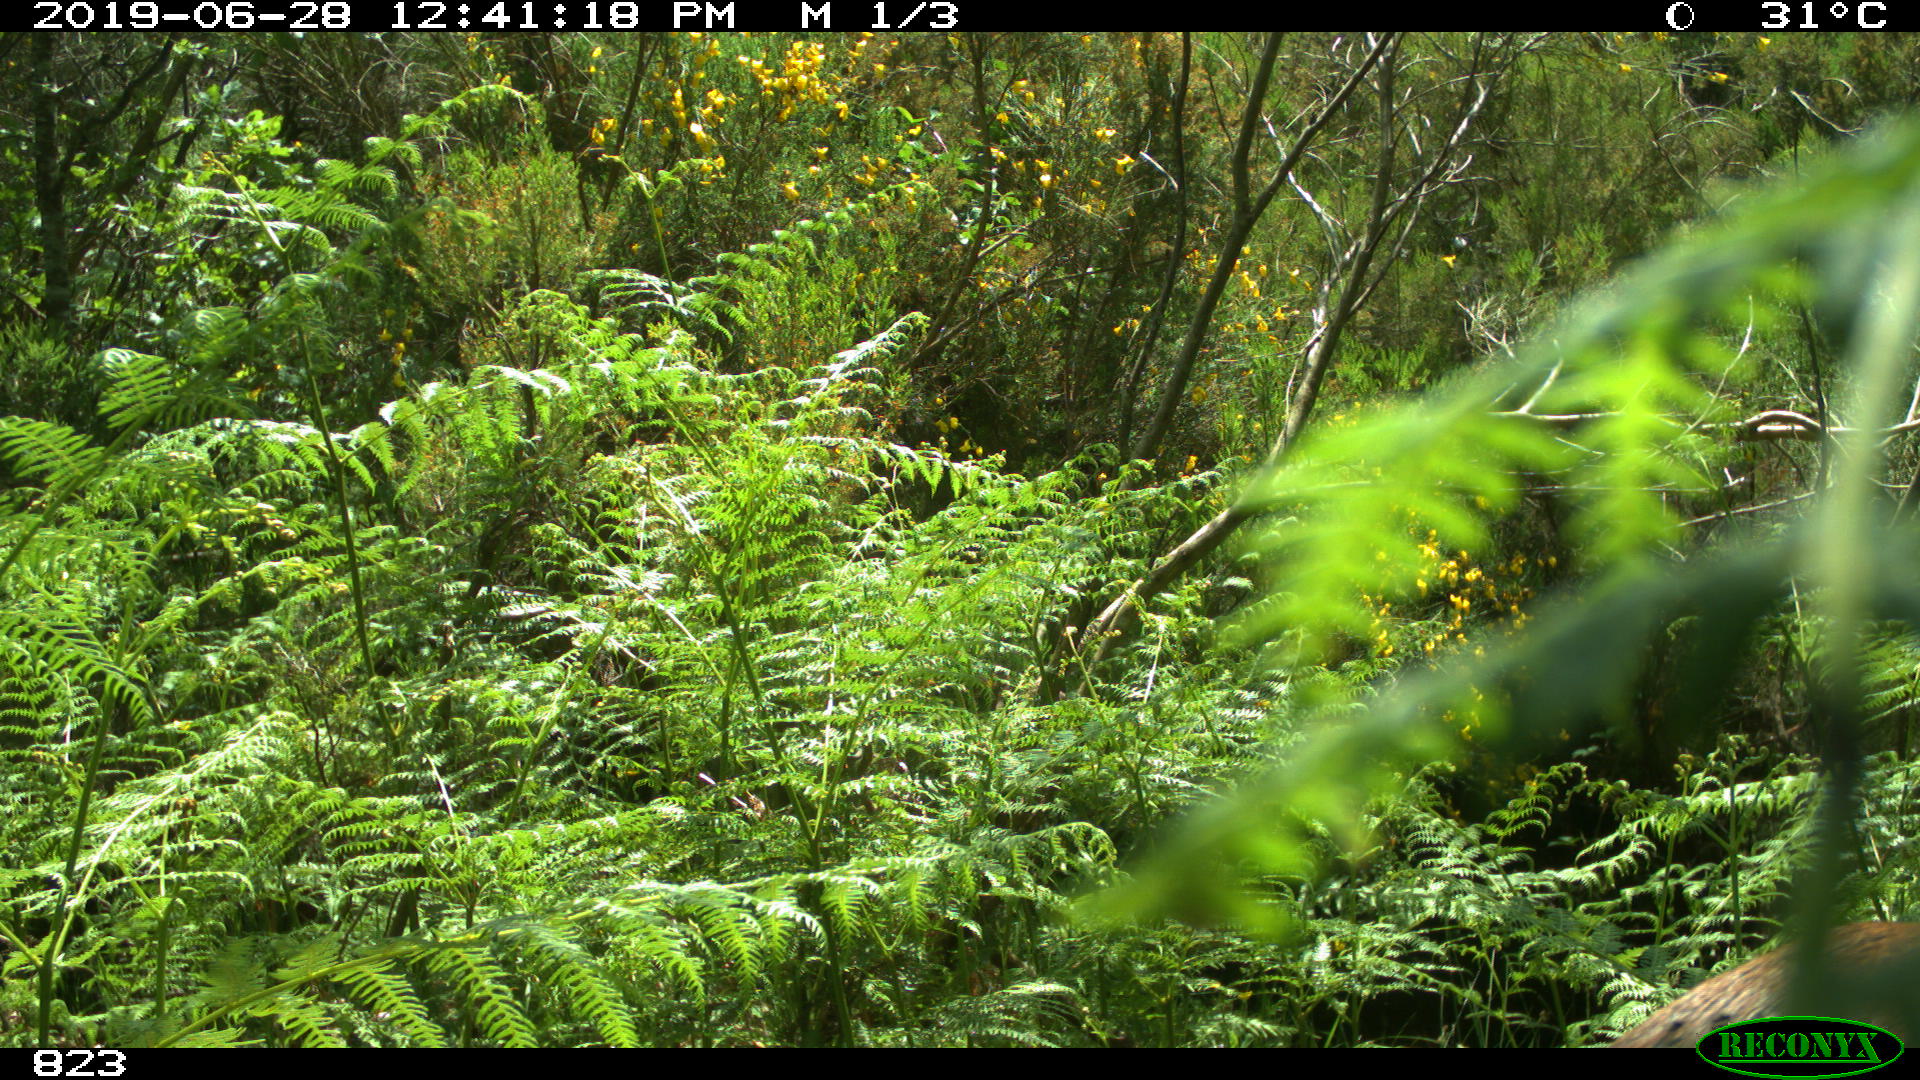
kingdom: Animalia
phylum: Chordata
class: Mammalia
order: Artiodactyla
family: Cervidae
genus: Capreolus
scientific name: Capreolus capreolus
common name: Western roe deer
